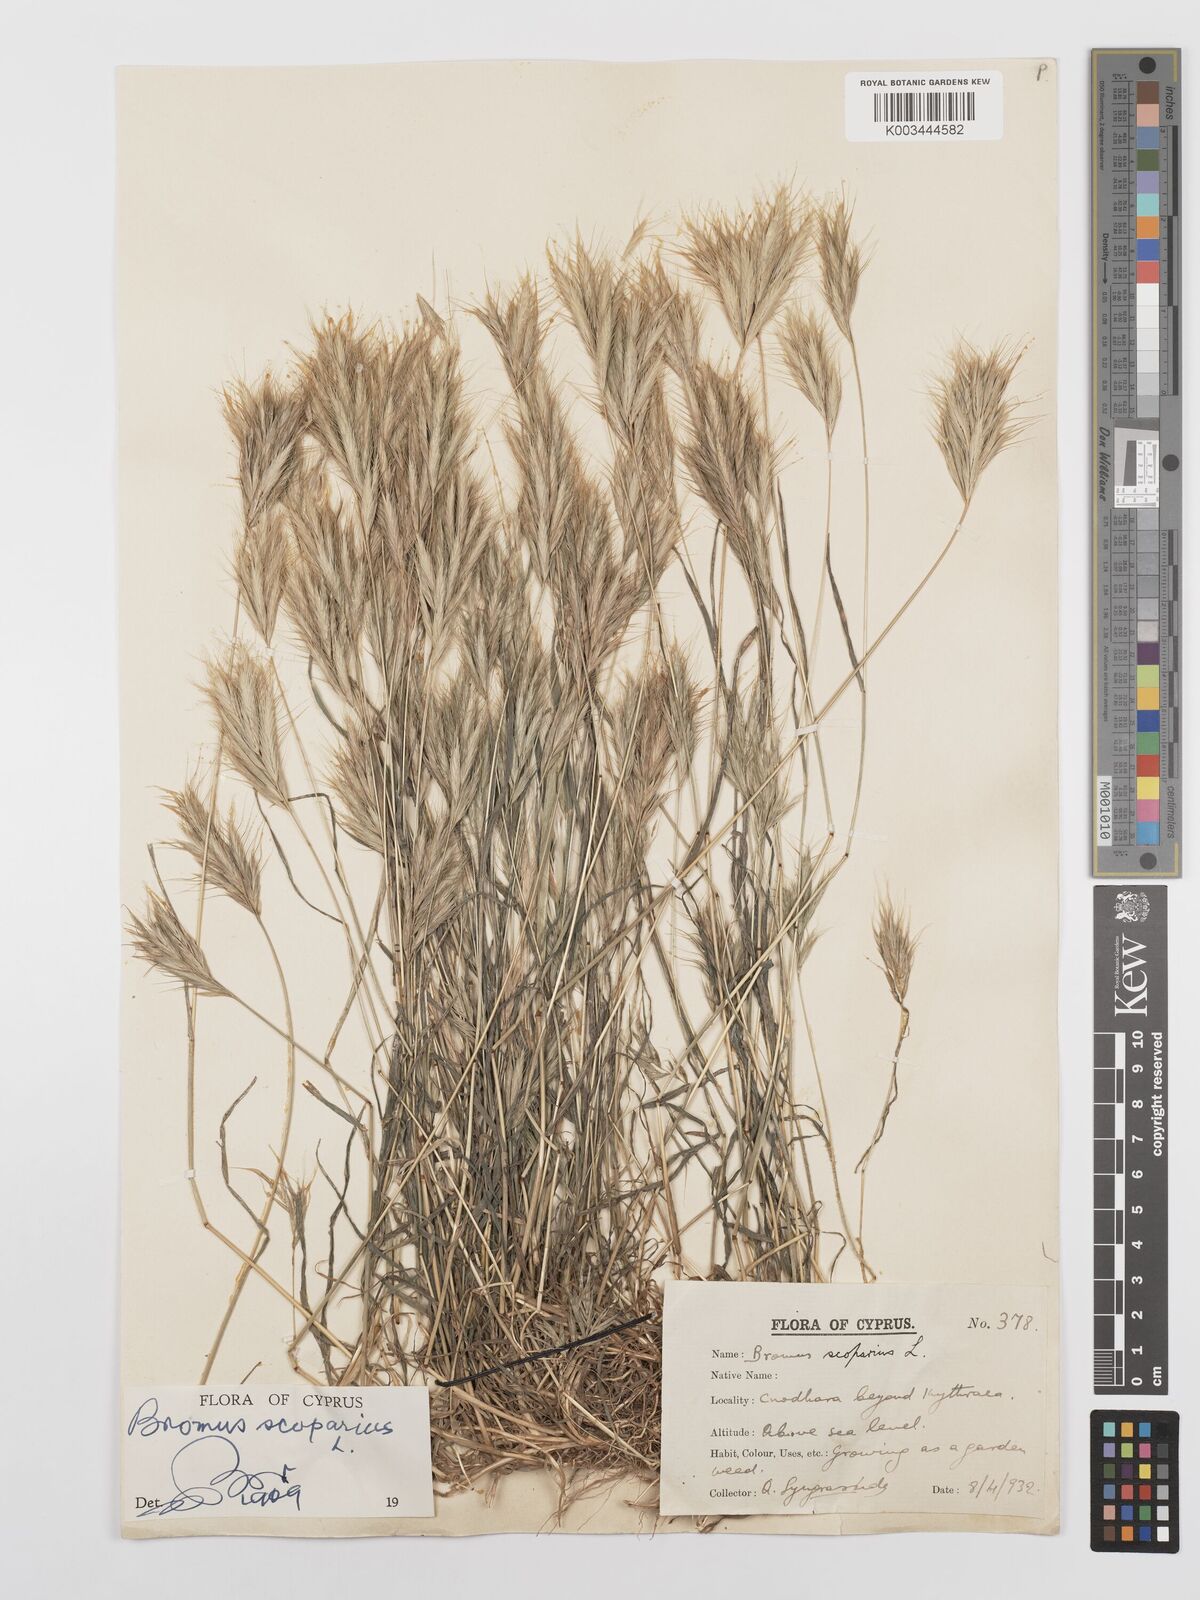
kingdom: Plantae
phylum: Tracheophyta
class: Liliopsida
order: Poales
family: Poaceae
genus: Bromus
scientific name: Bromus scoparius
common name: Broom brome
